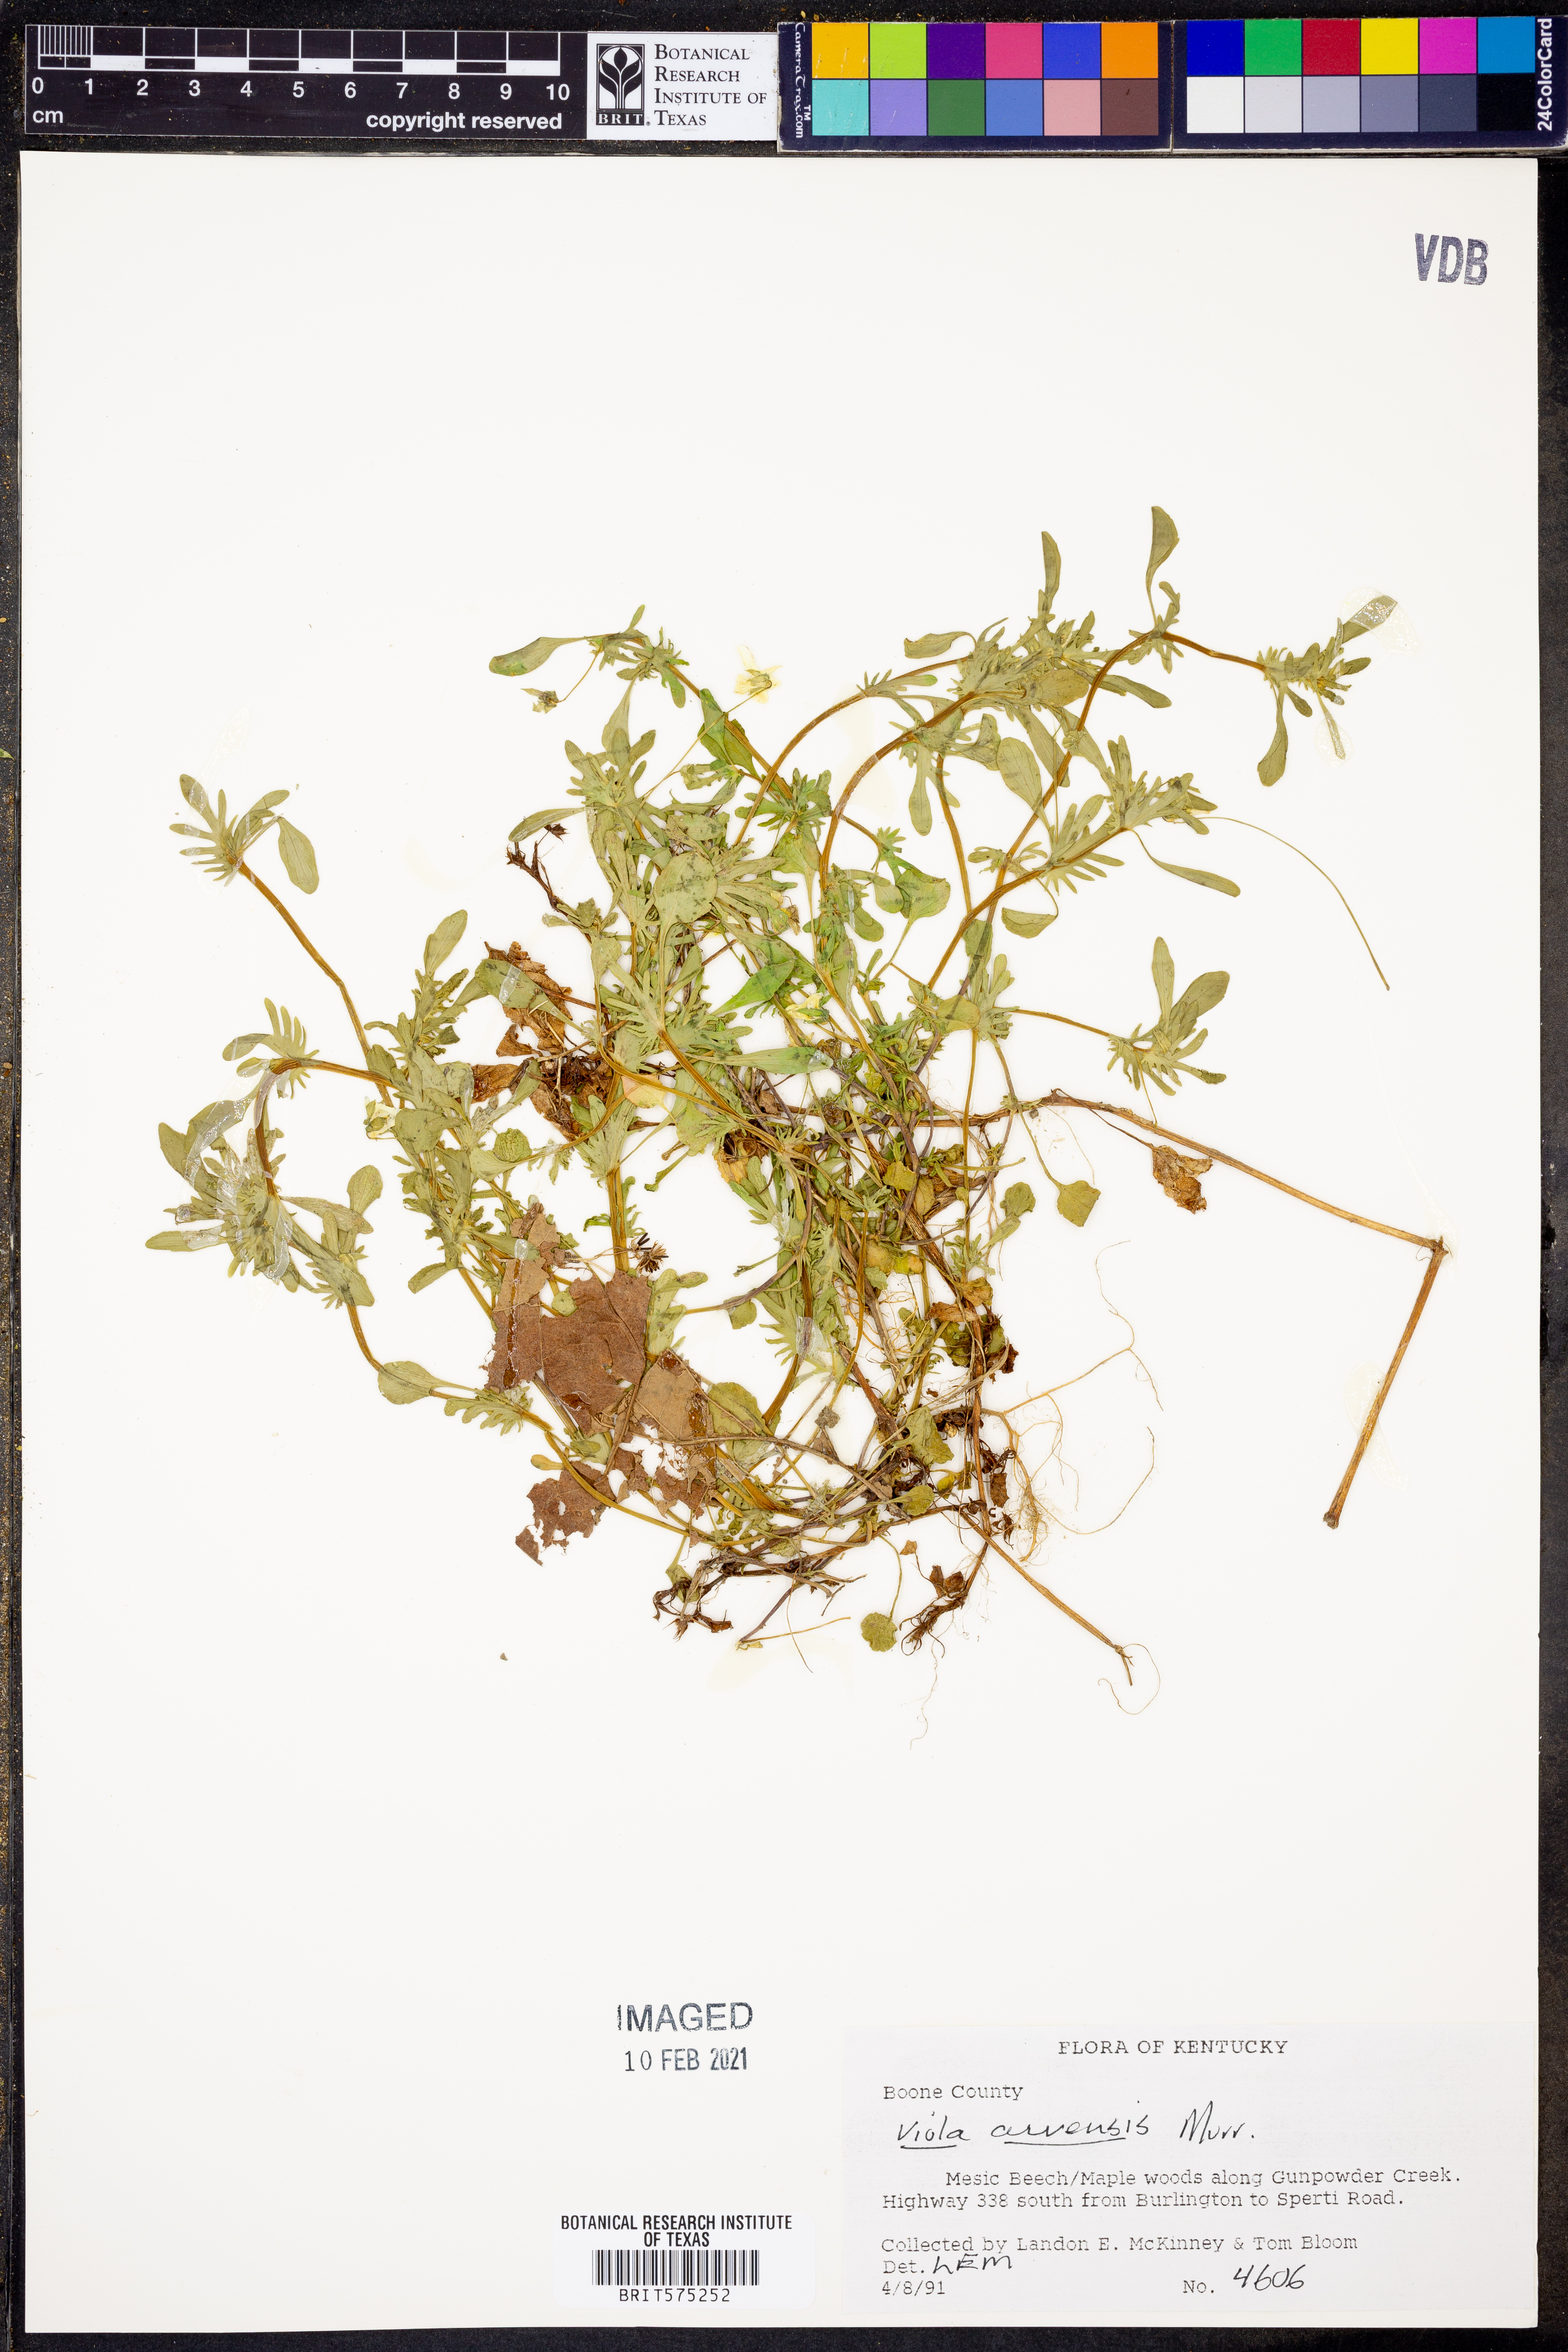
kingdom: Plantae
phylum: Tracheophyta
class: Magnoliopsida
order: Malpighiales
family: Violaceae
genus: Viola
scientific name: Viola arvensis
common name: Field pansy
